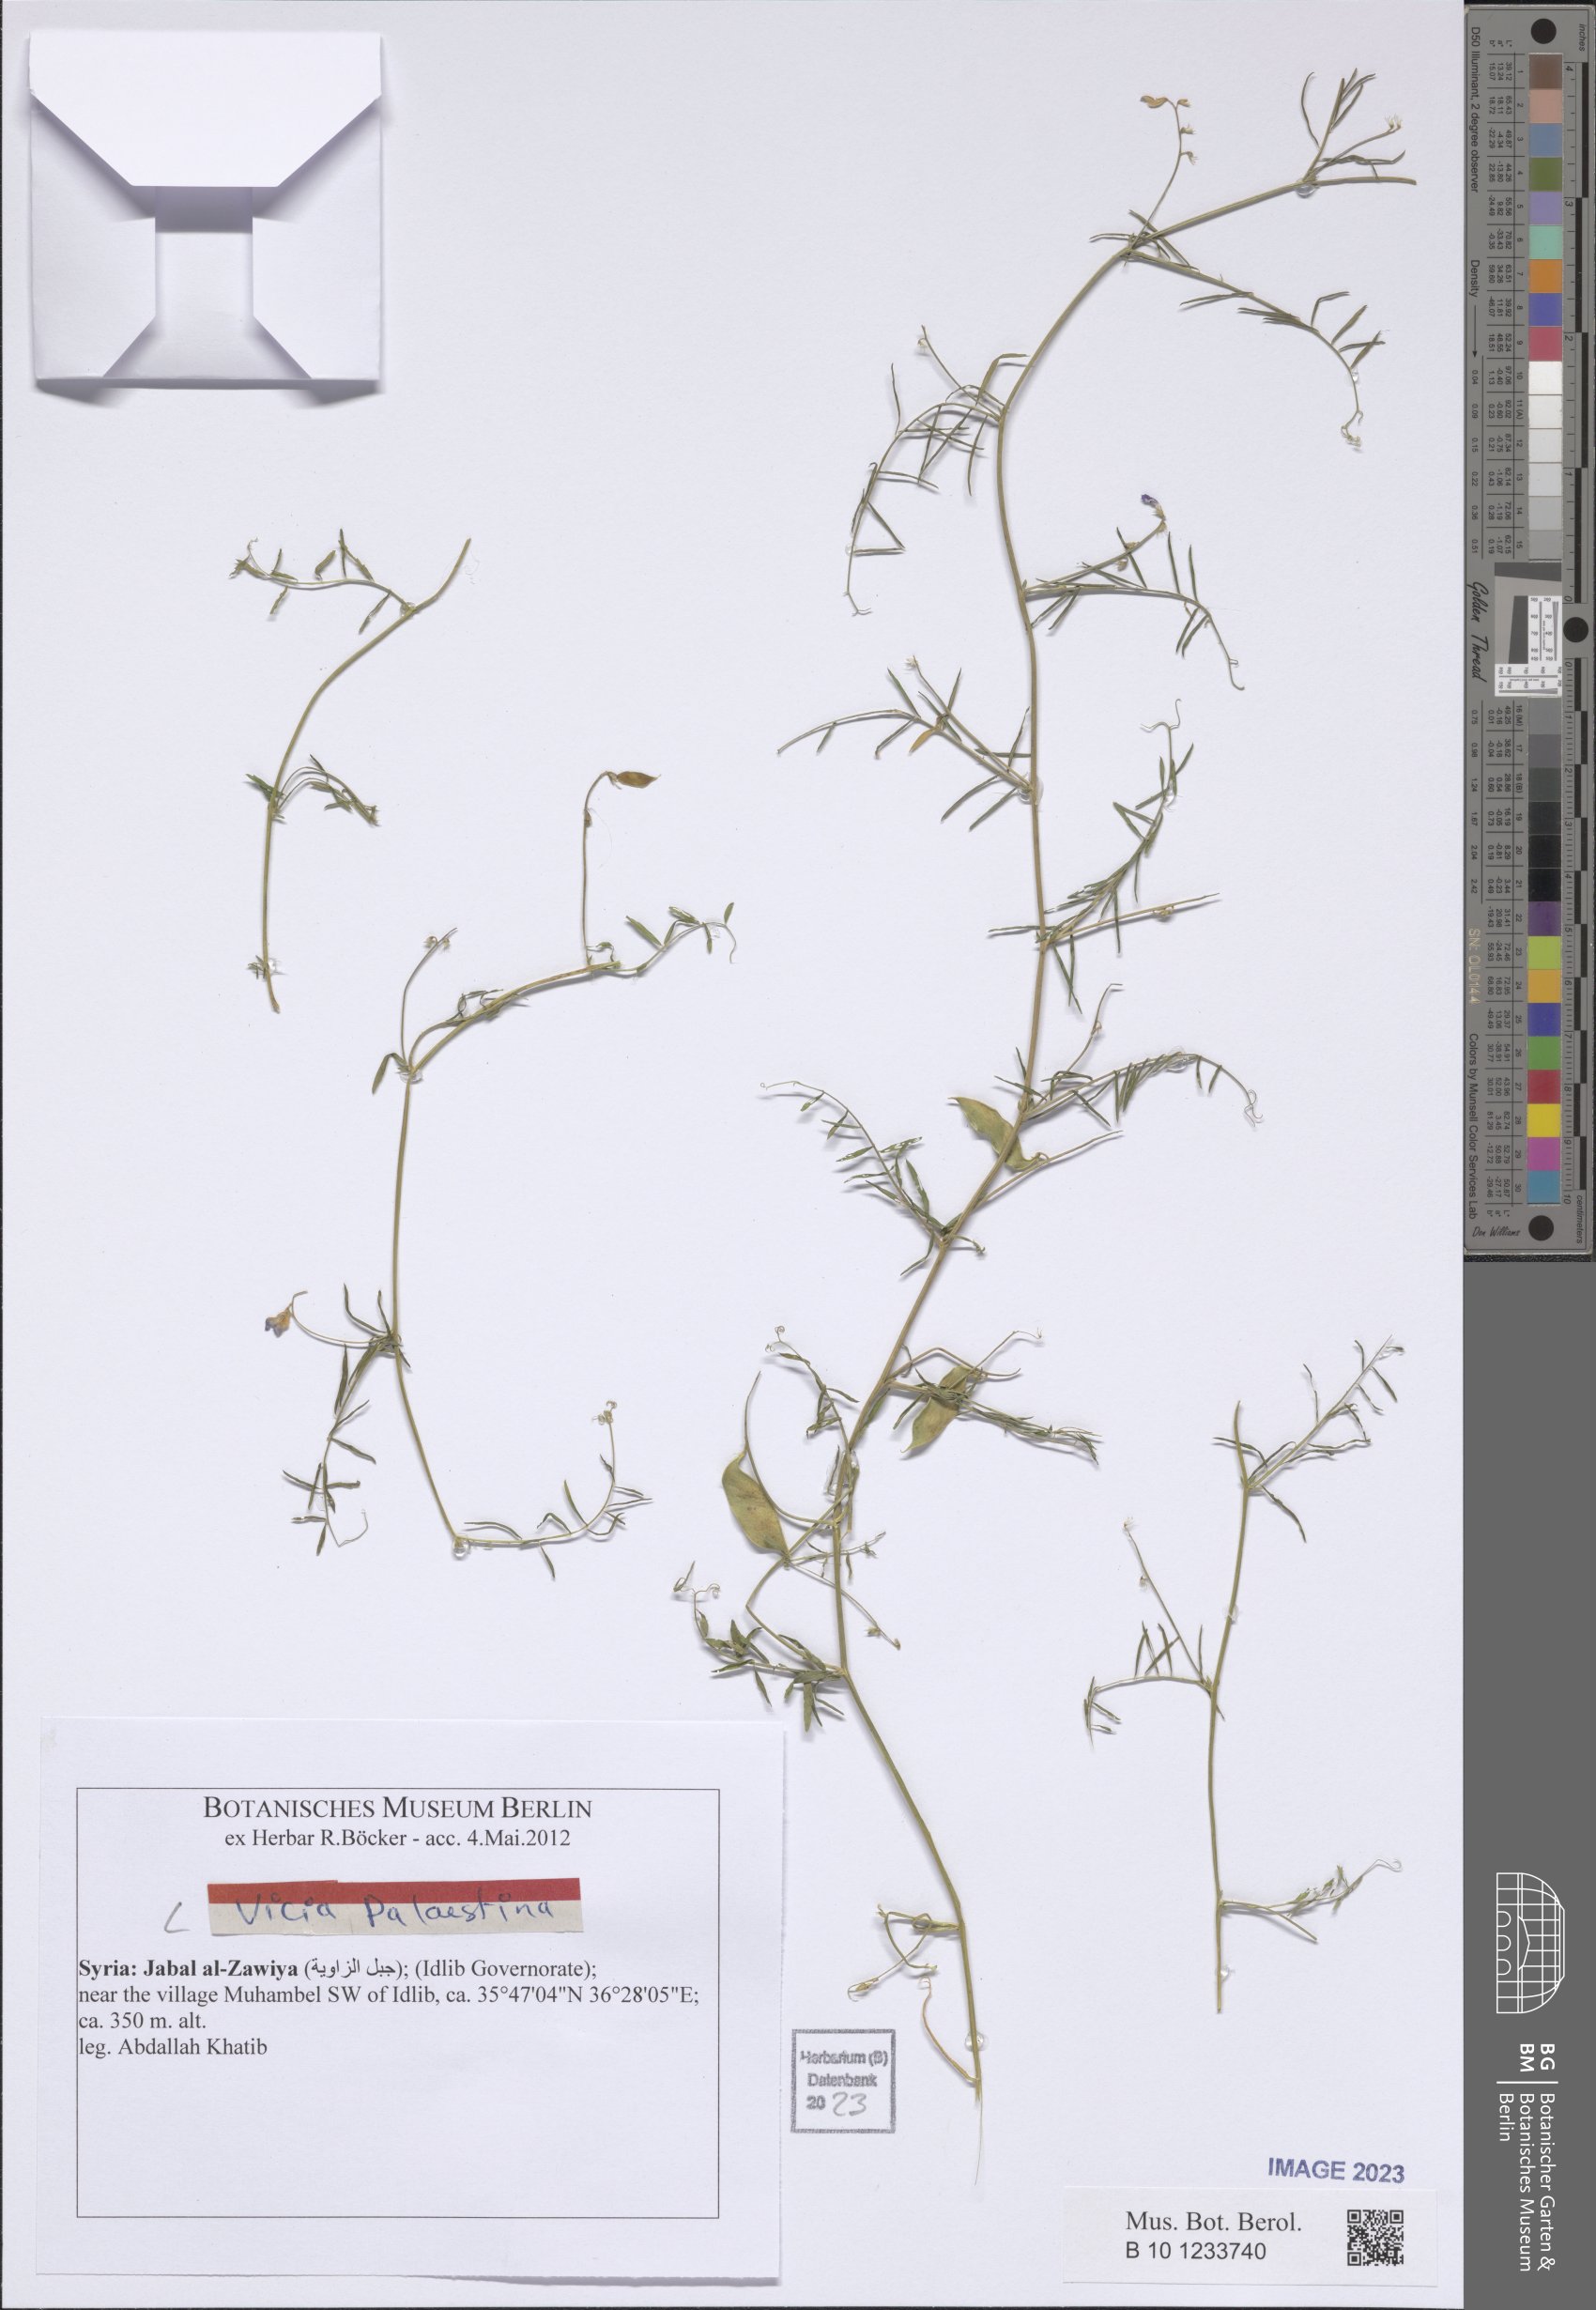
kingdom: Plantae
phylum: Tracheophyta
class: Magnoliopsida
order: Fabales
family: Fabaceae
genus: Vicia
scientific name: Vicia palaestina
